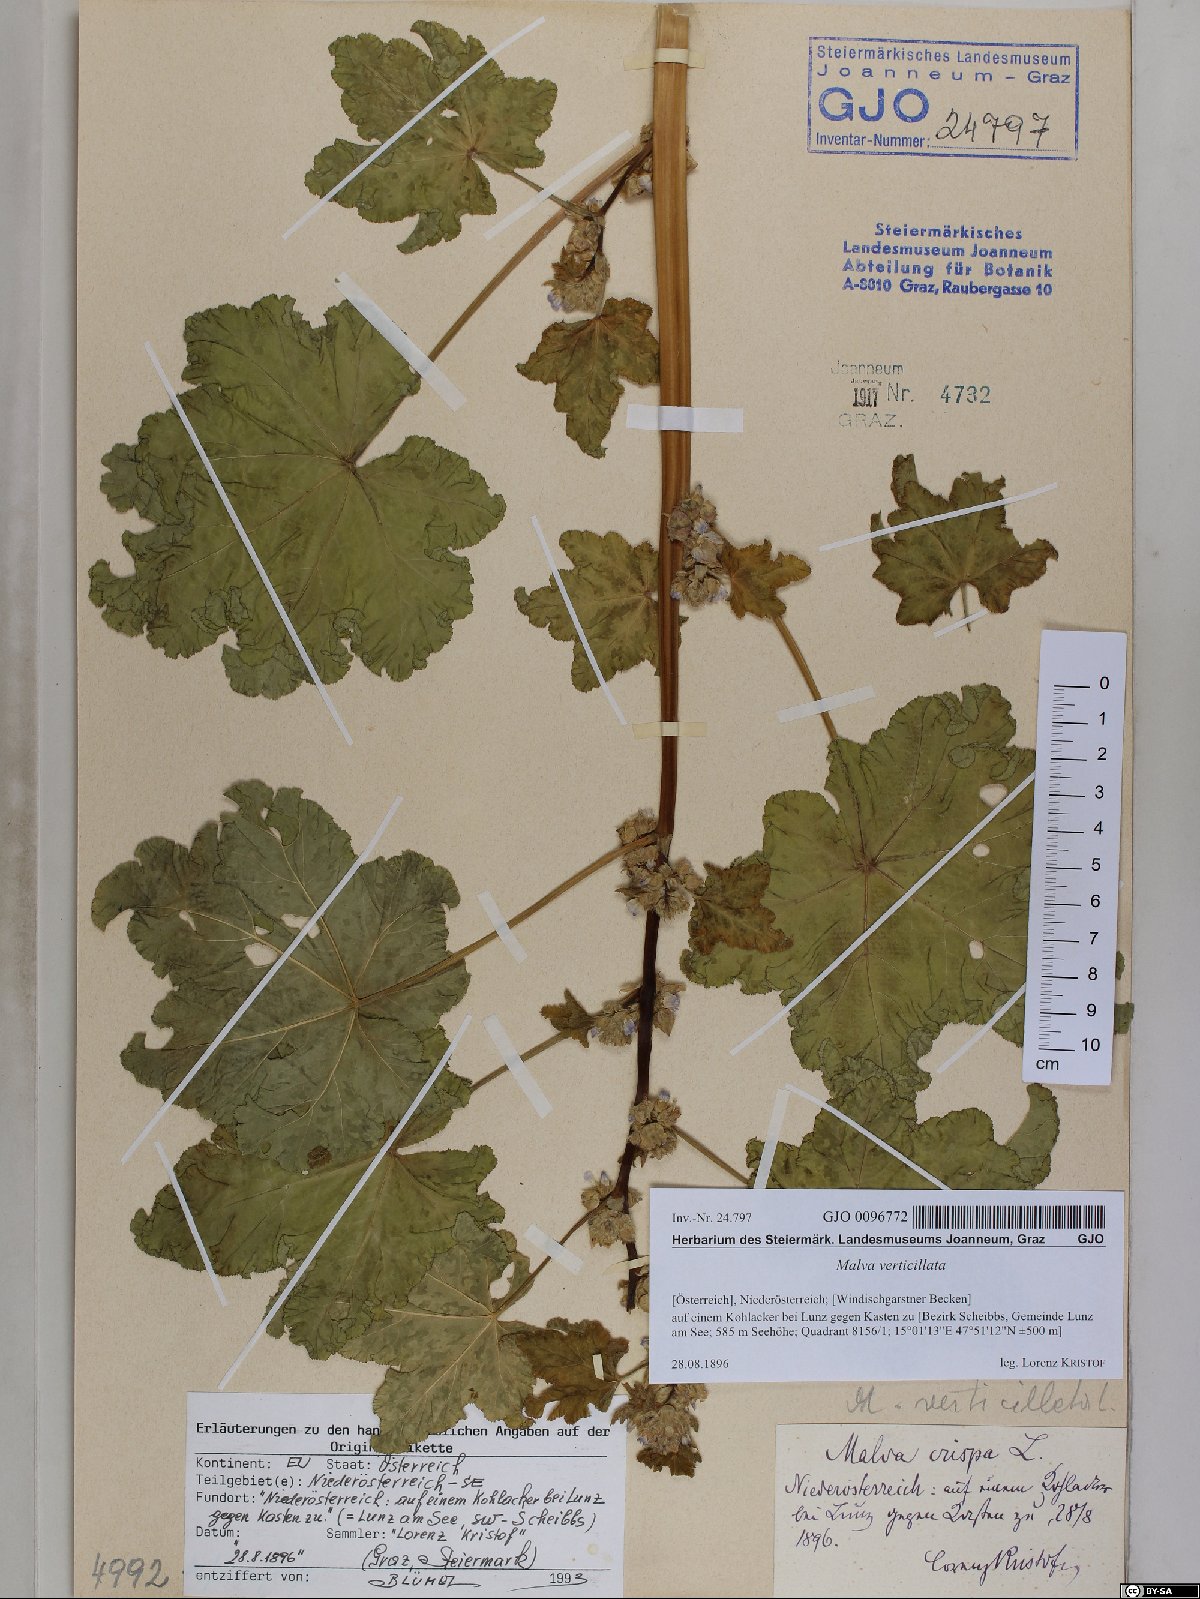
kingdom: Plantae
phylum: Tracheophyta
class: Magnoliopsida
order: Malvales
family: Malvaceae
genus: Malva
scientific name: Malva verticillata
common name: Chinese mallow
